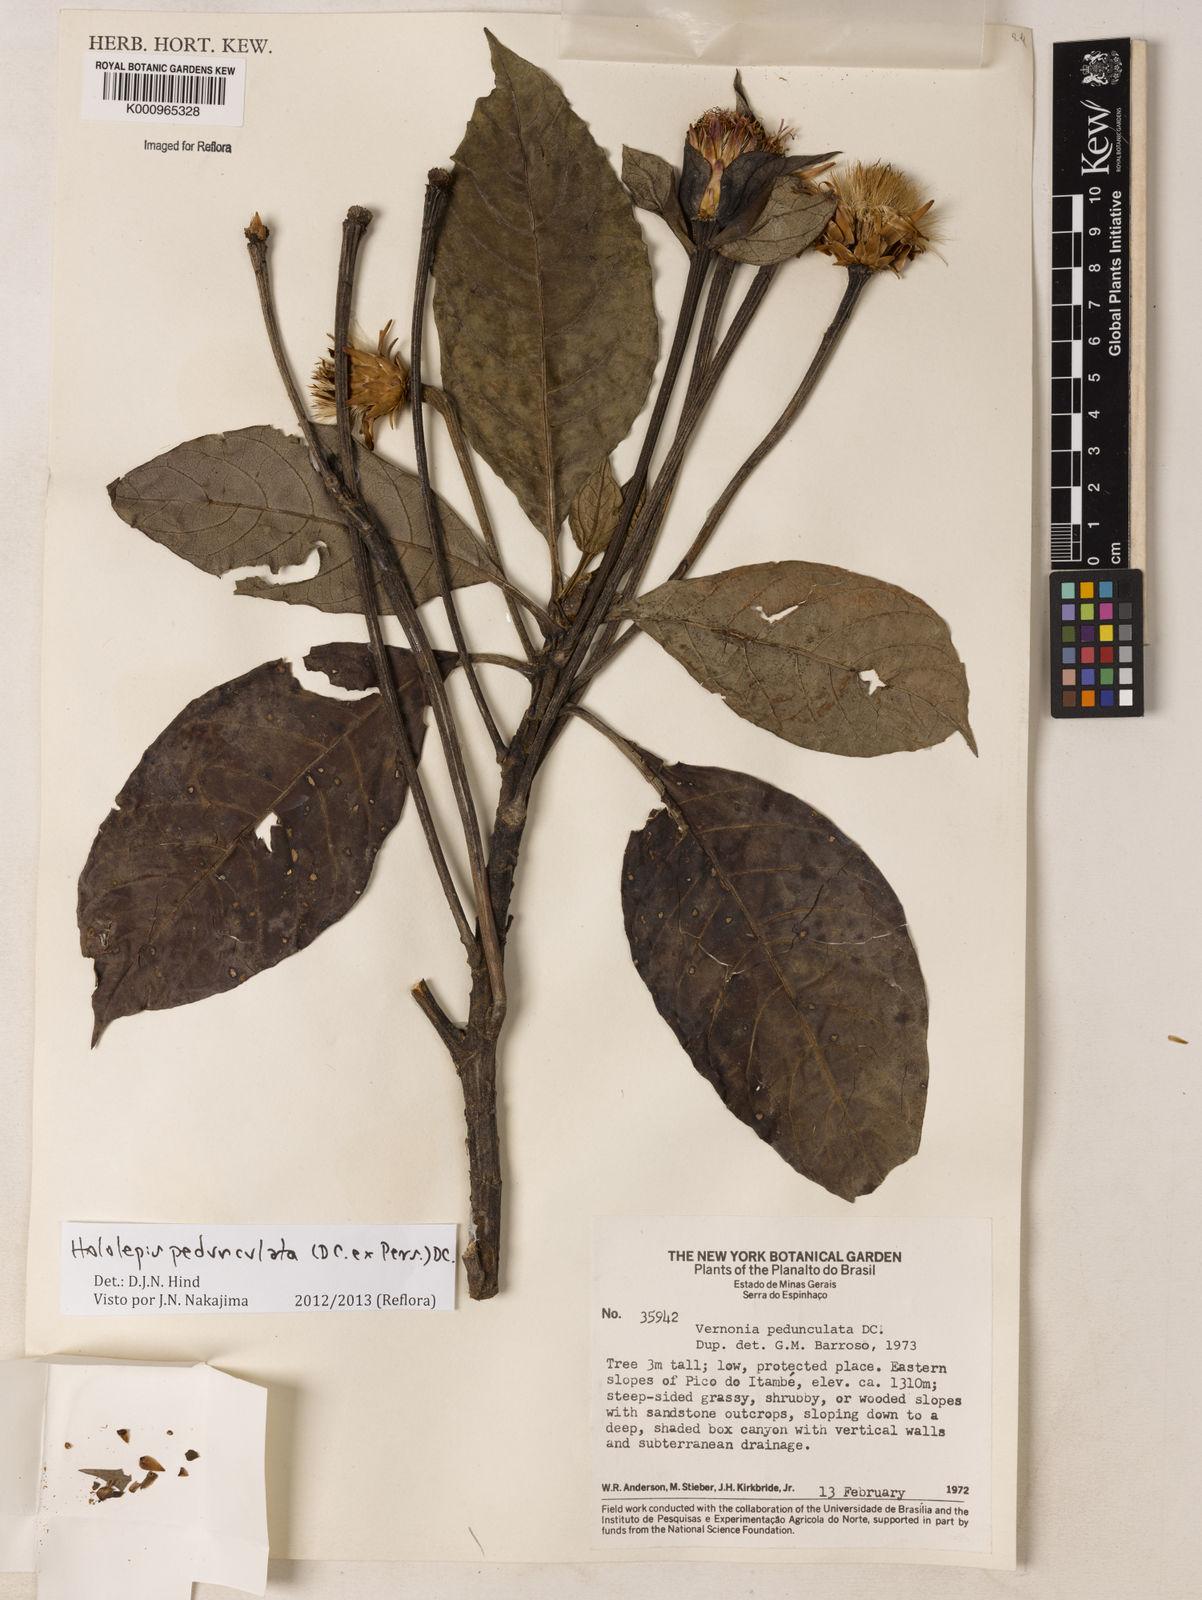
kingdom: Plantae
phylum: Tracheophyta
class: Magnoliopsida
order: Asterales
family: Asteraceae
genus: Hololepis
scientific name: Hololepis pedunculata
